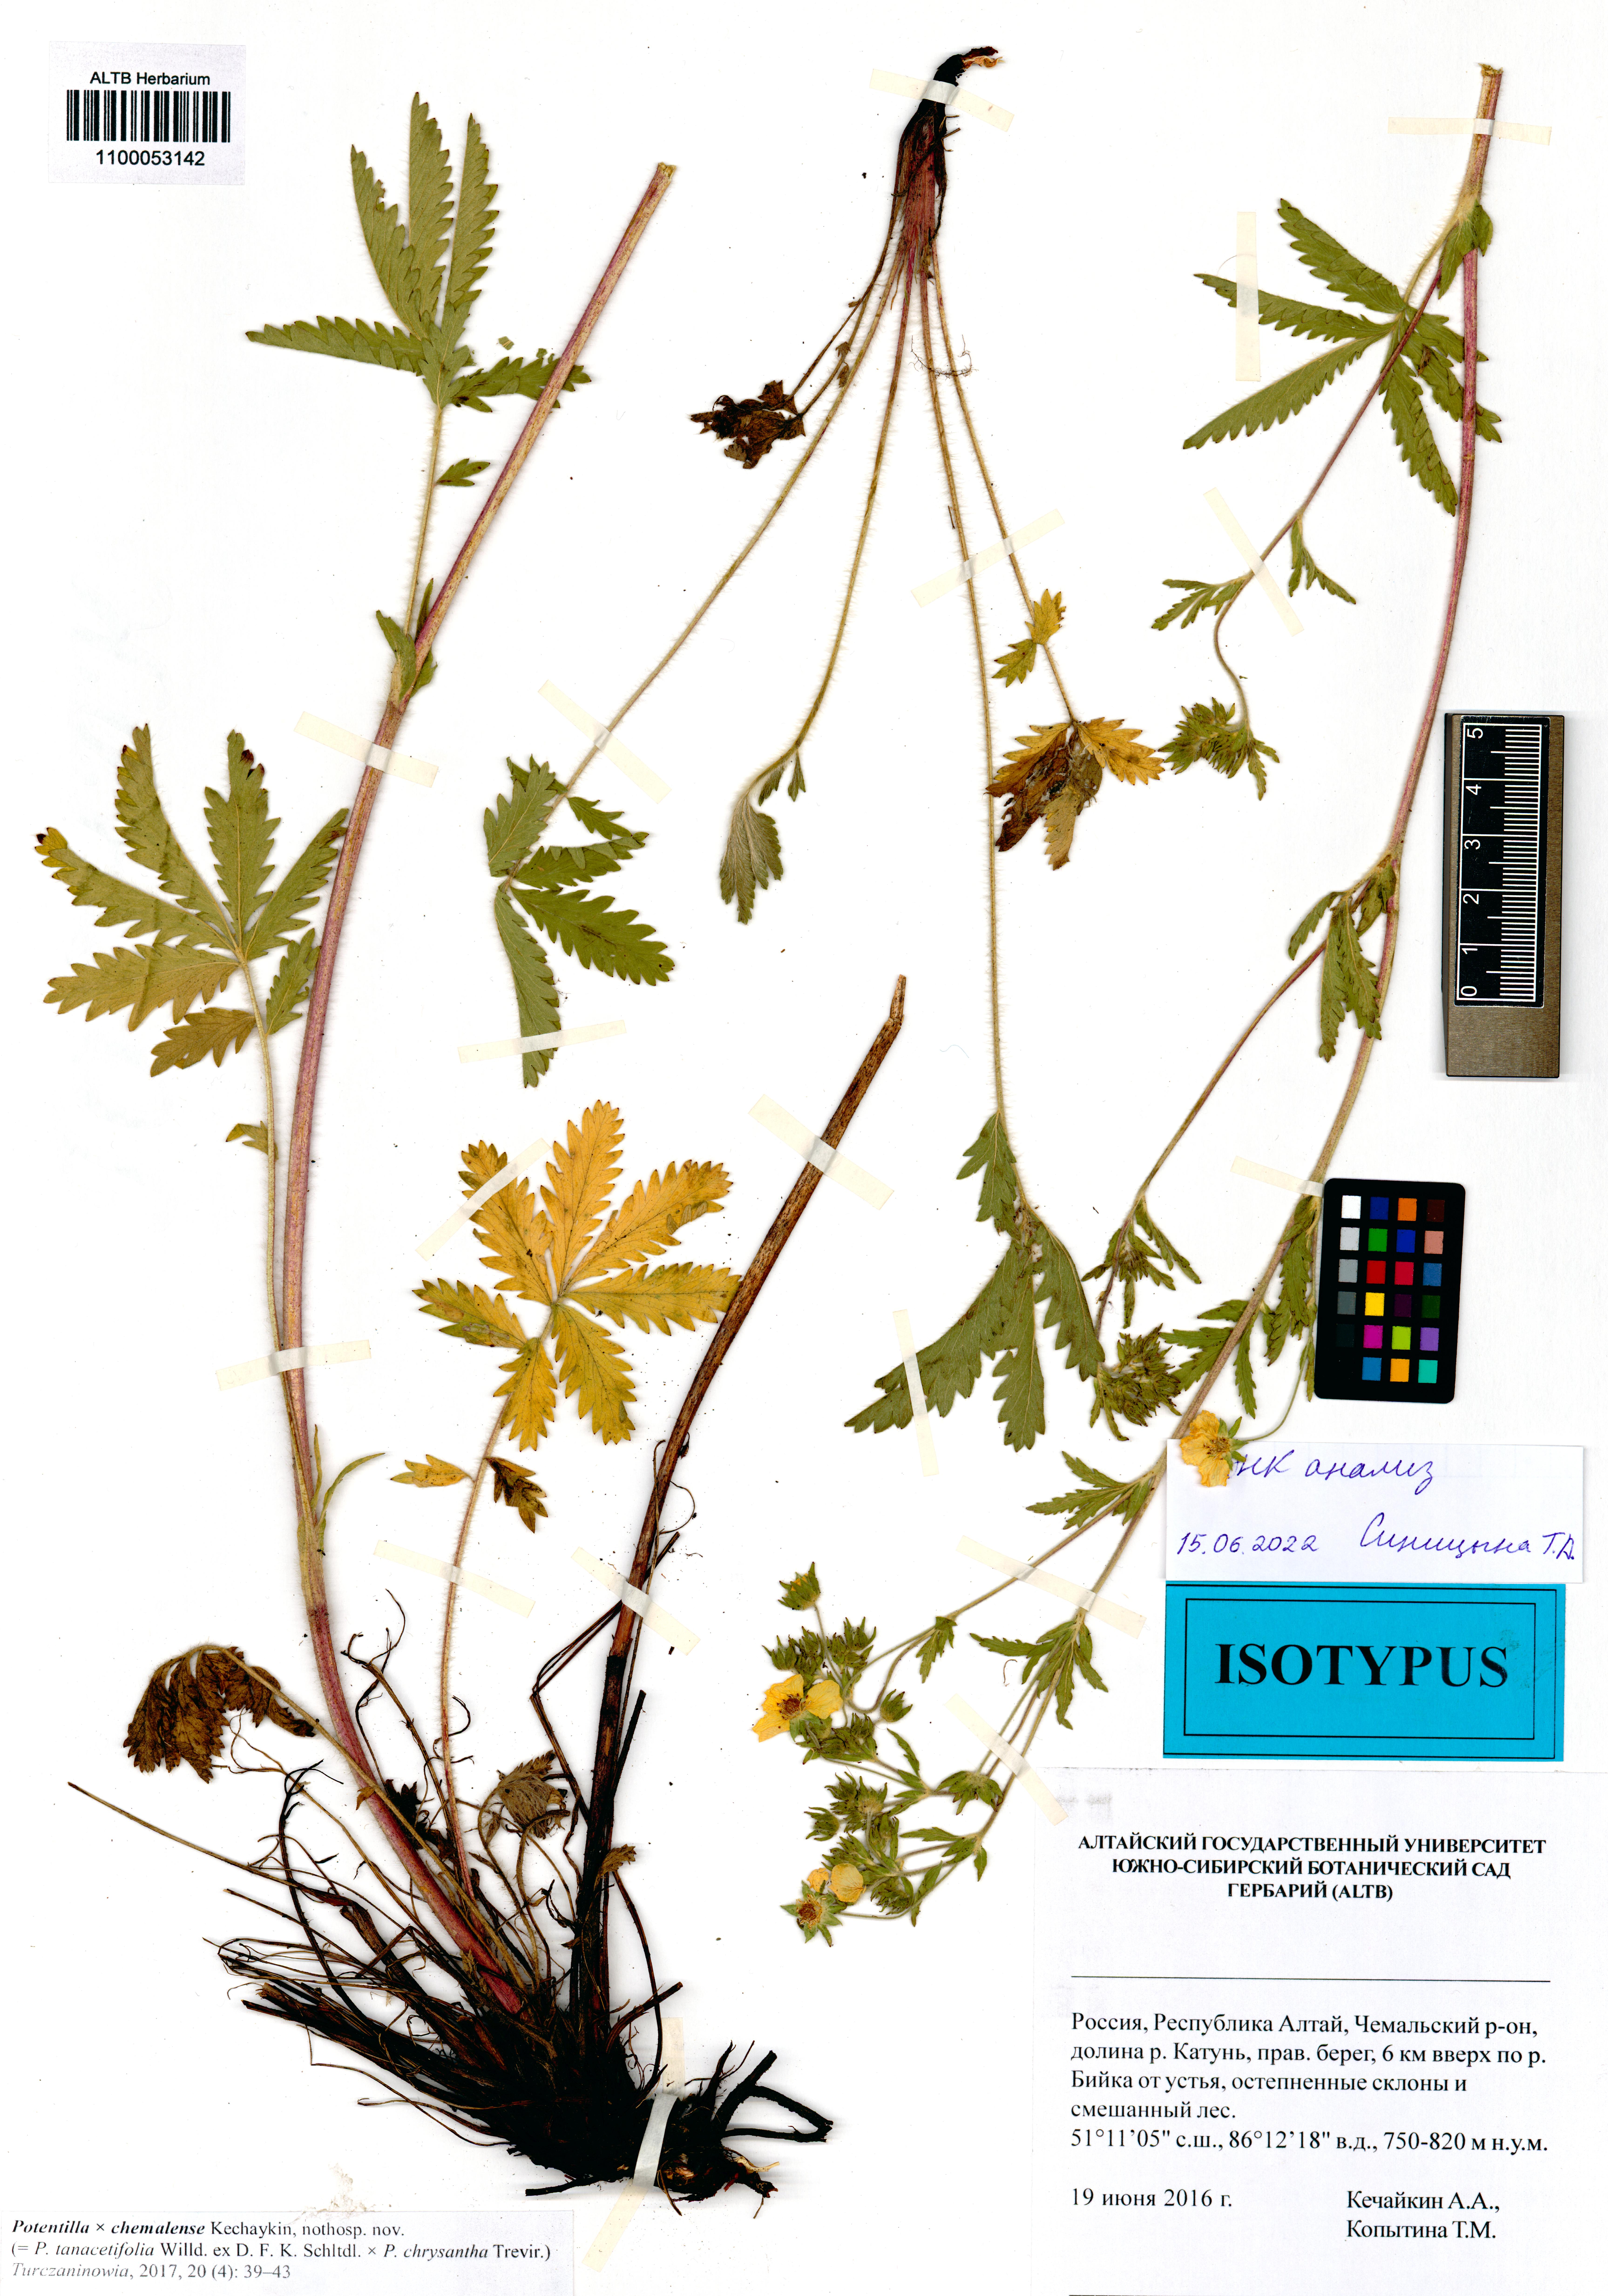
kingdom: Plantae
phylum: Tracheophyta
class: Magnoliopsida
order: Rosales
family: Rosaceae
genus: Potentilla
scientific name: Potentilla chemalensis
